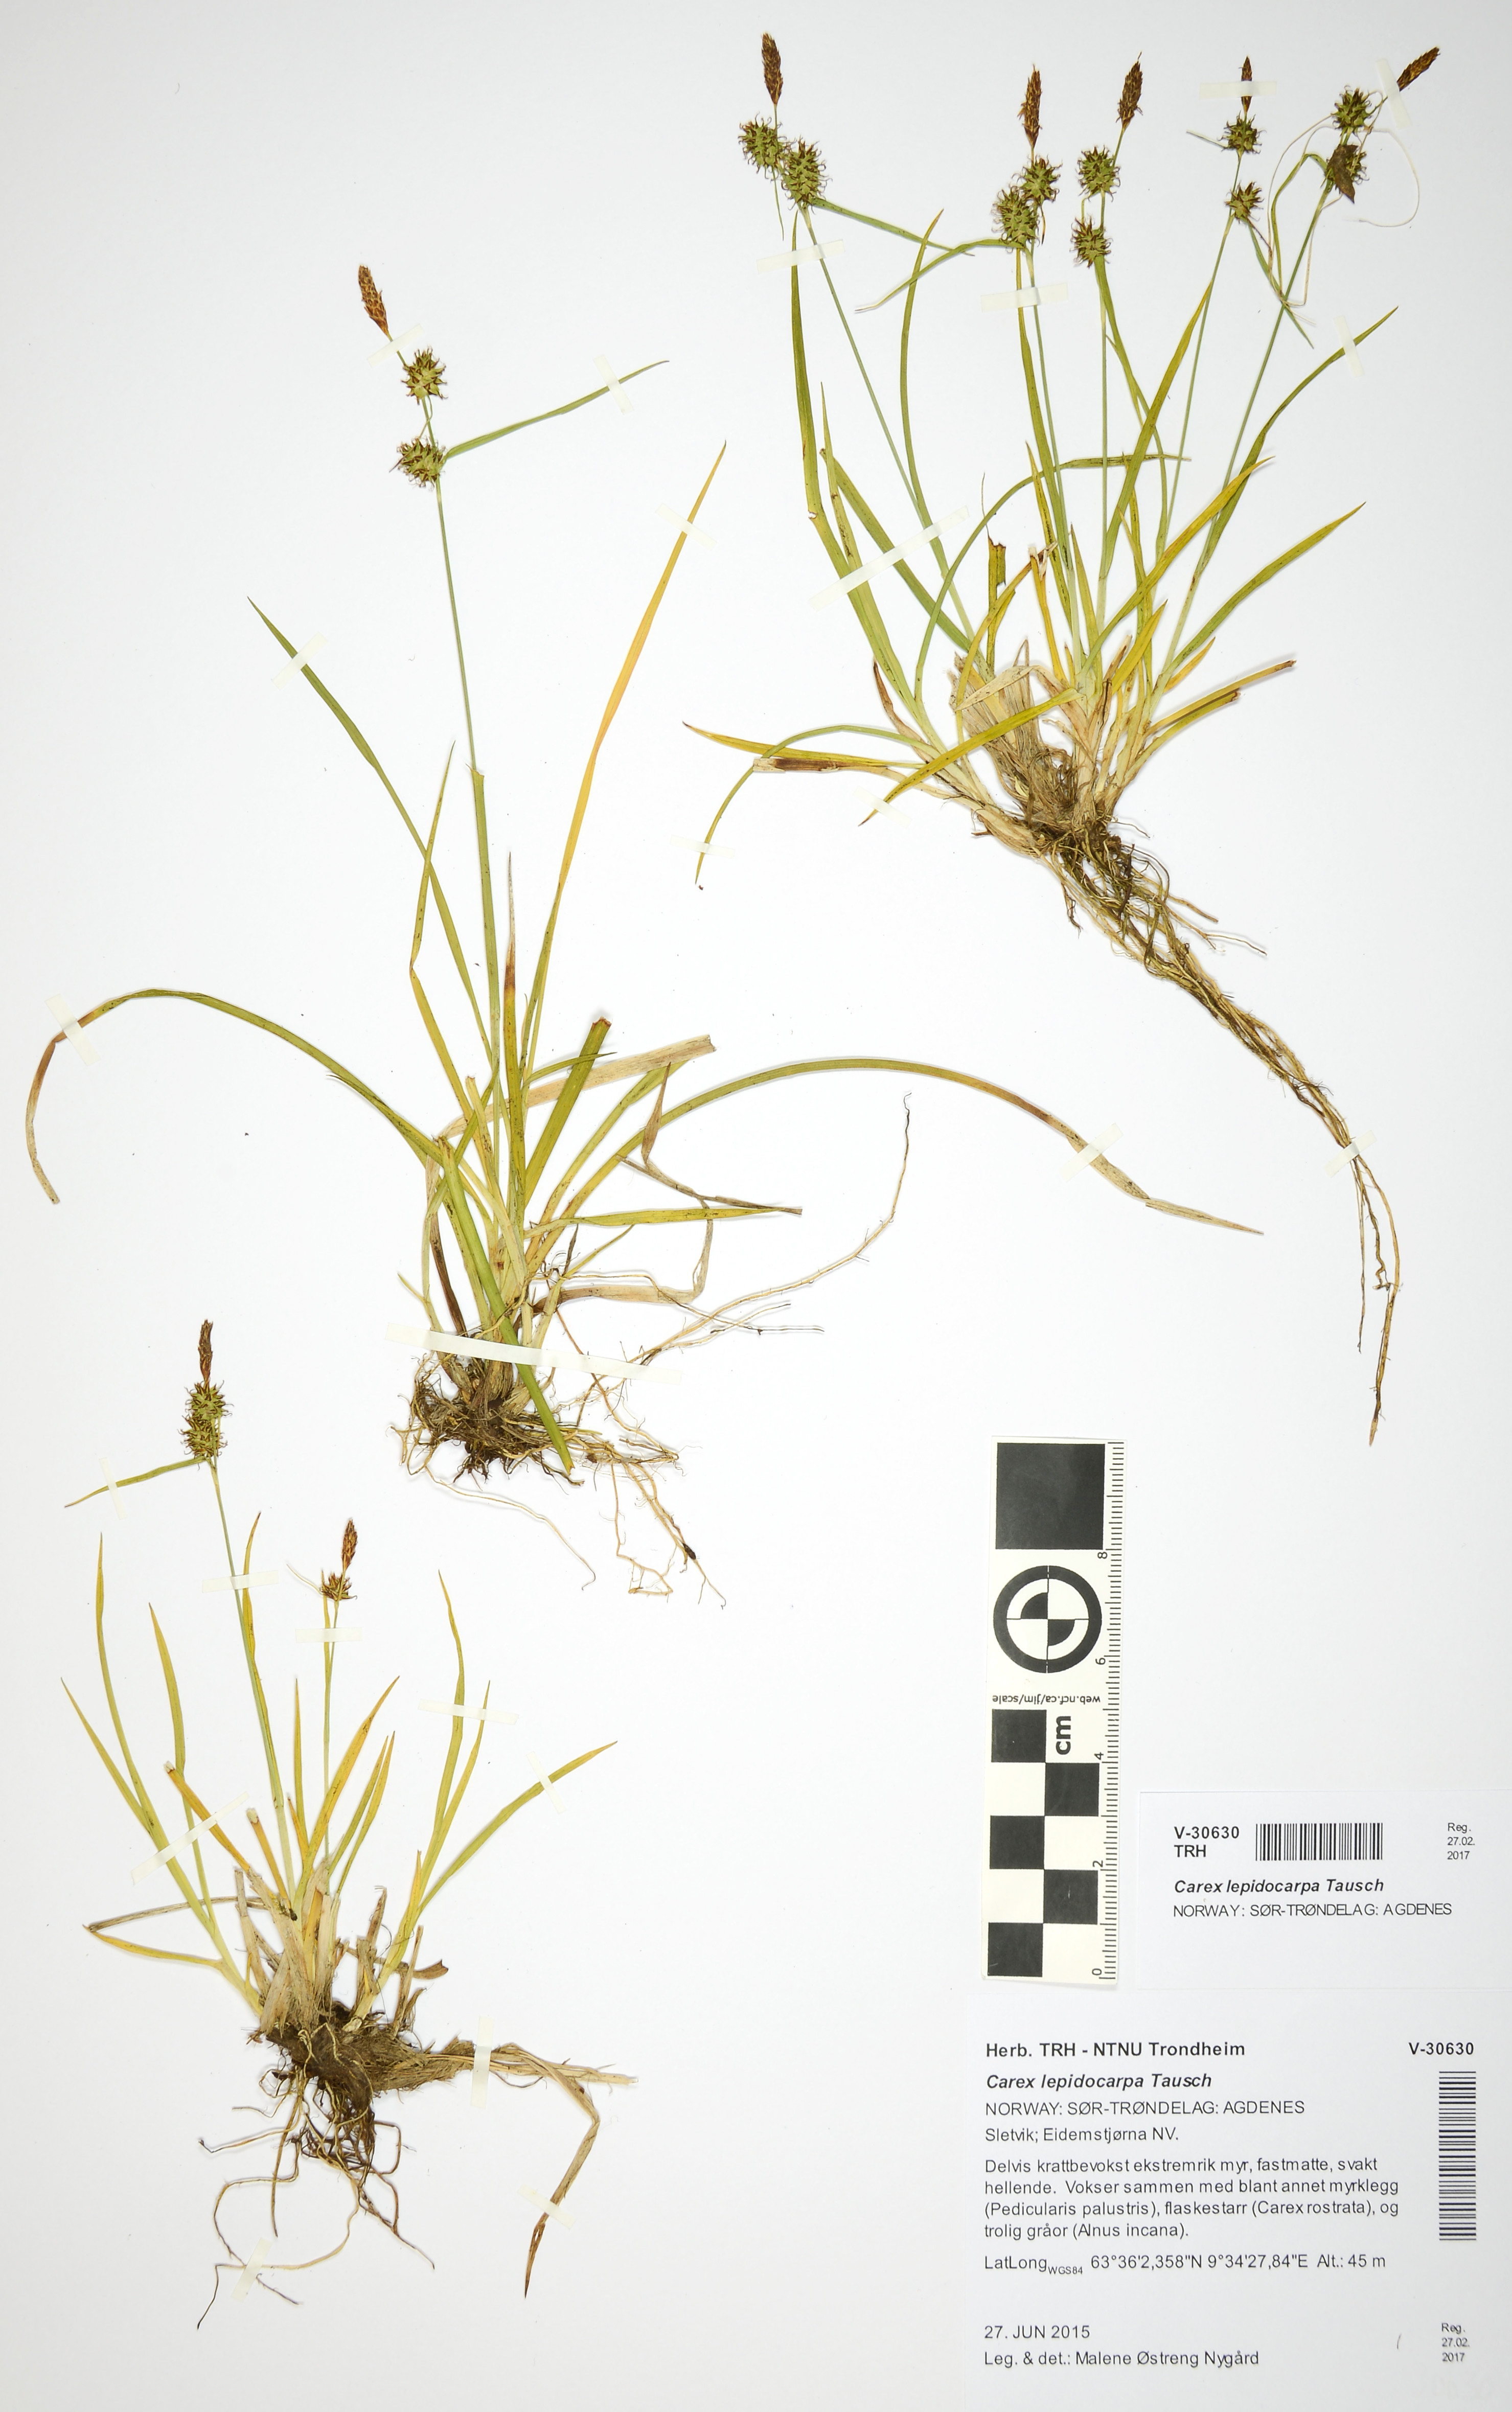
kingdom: Plantae
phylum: Tracheophyta
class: Liliopsida
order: Poales
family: Cyperaceae
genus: Carex
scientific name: Carex lepidocarpa
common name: Long-stalked yellow-sedge
